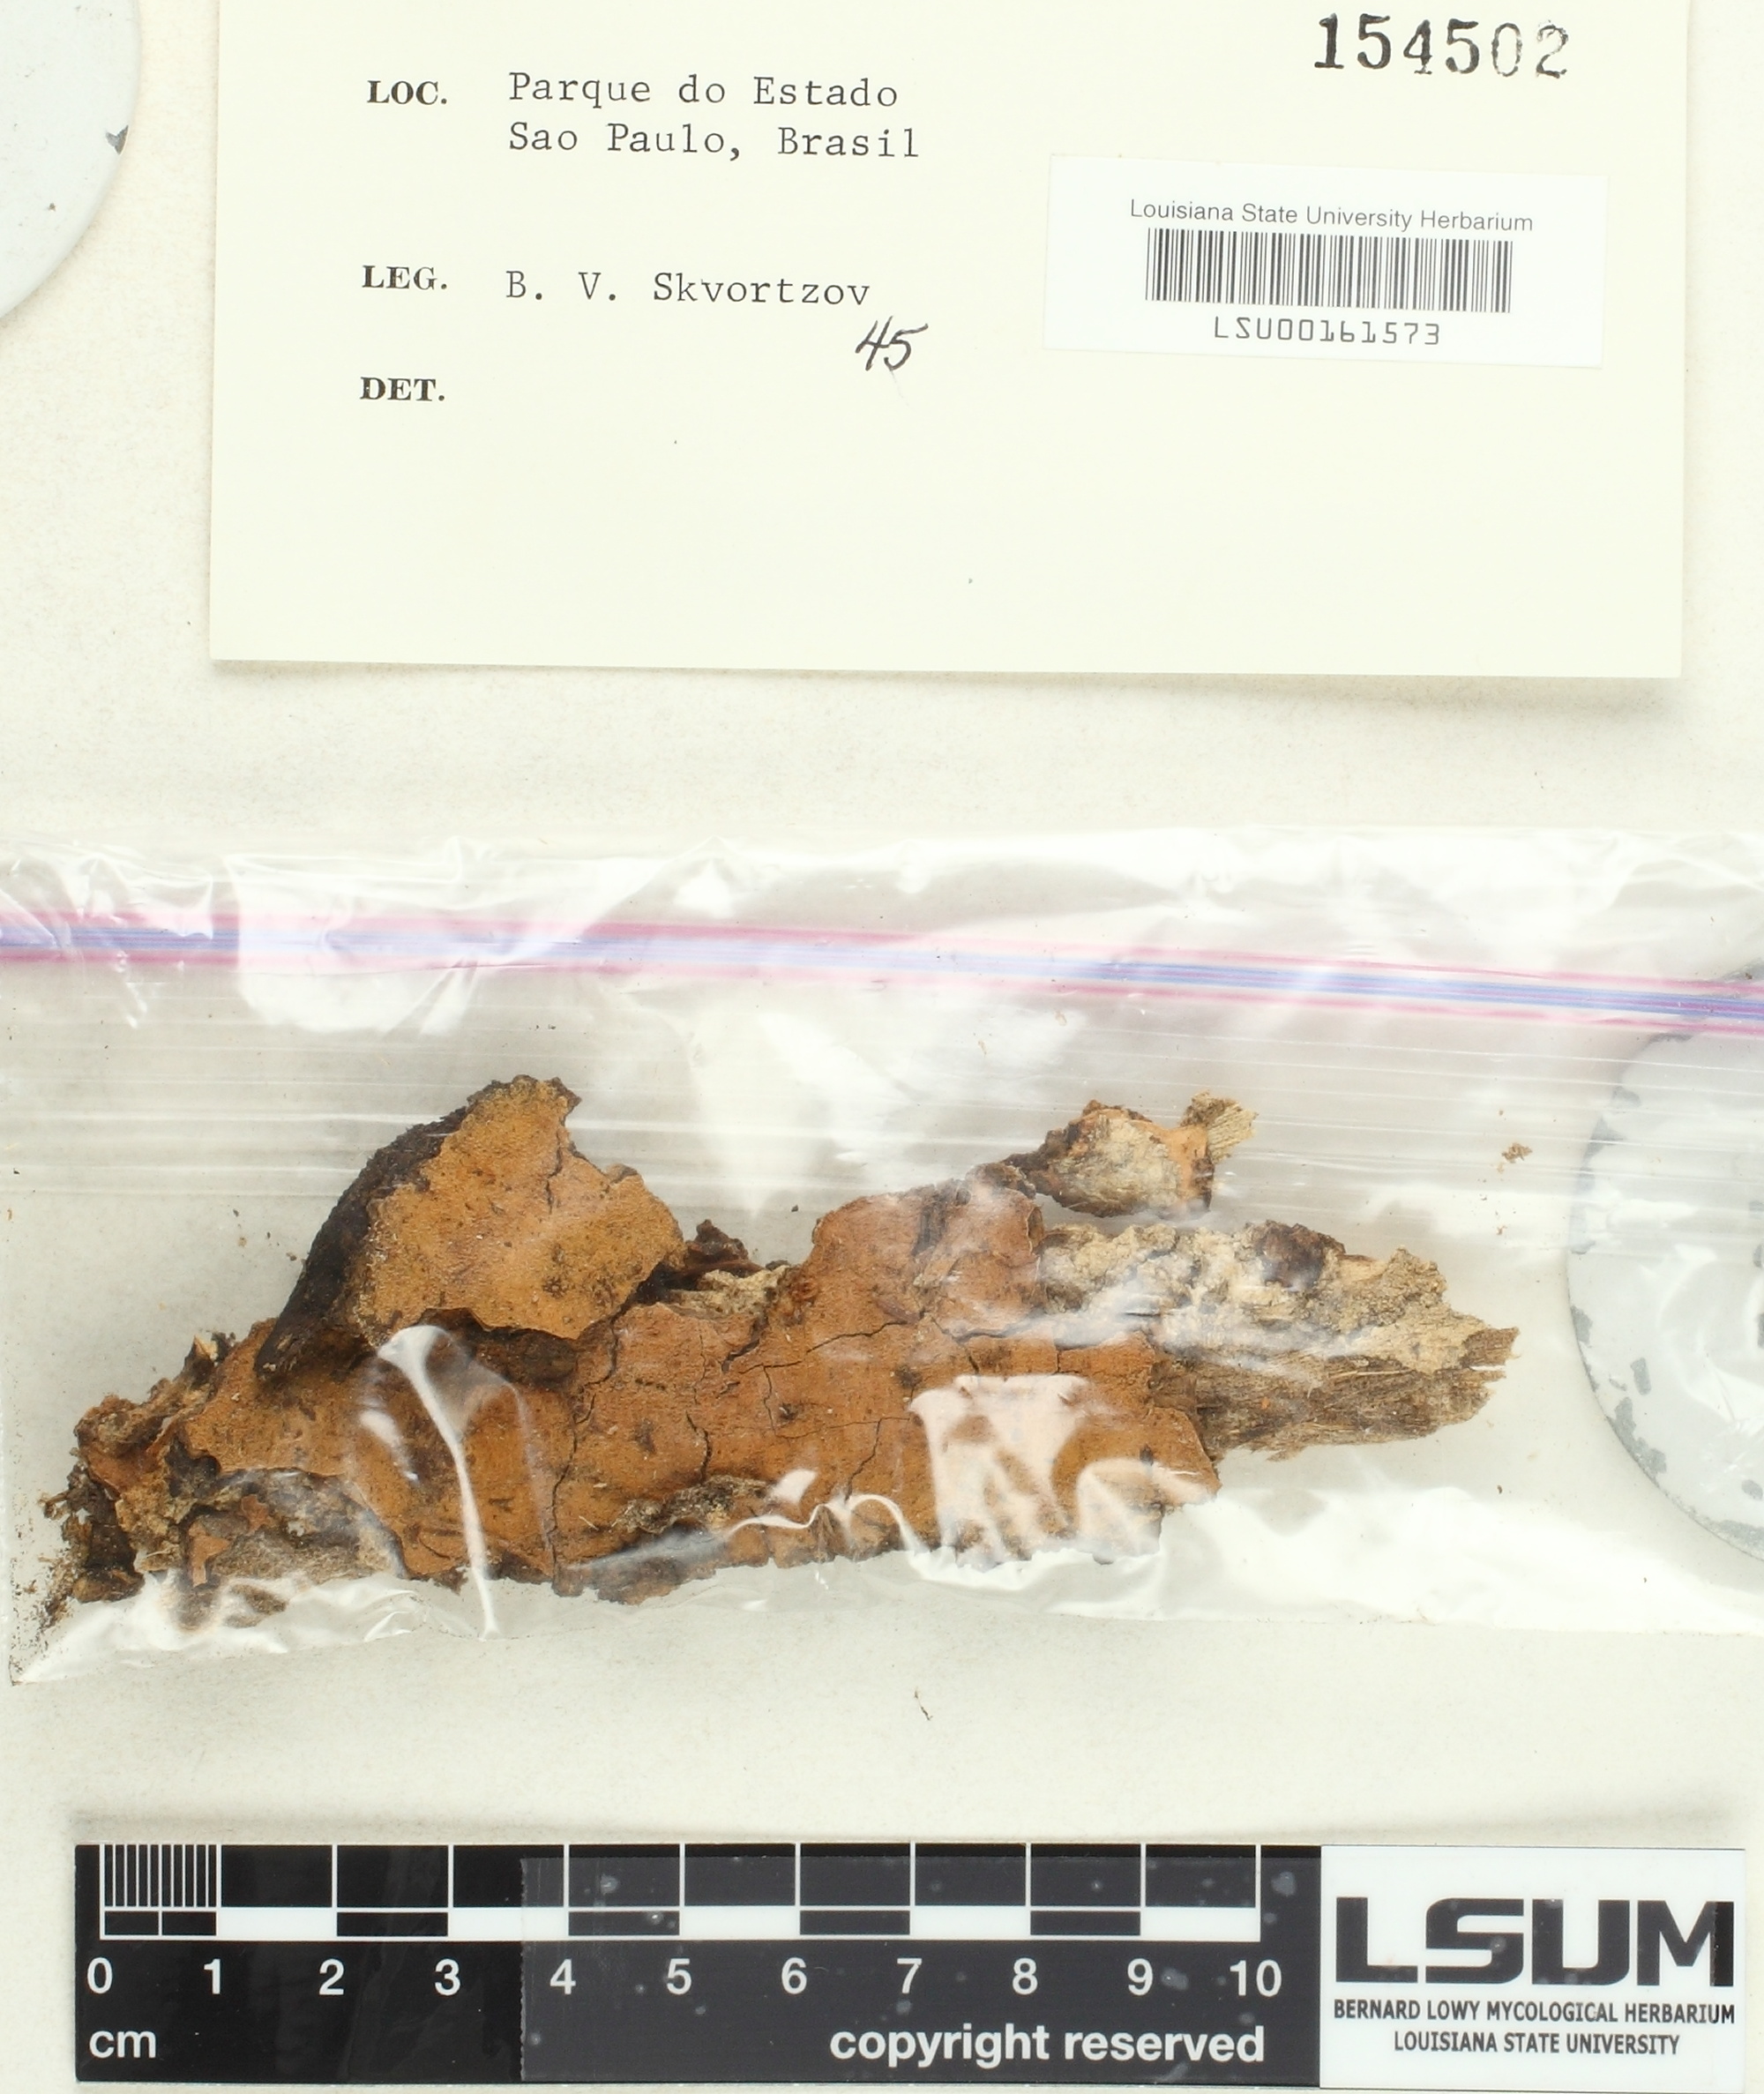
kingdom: Fungi
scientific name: Fungi
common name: Fungi
